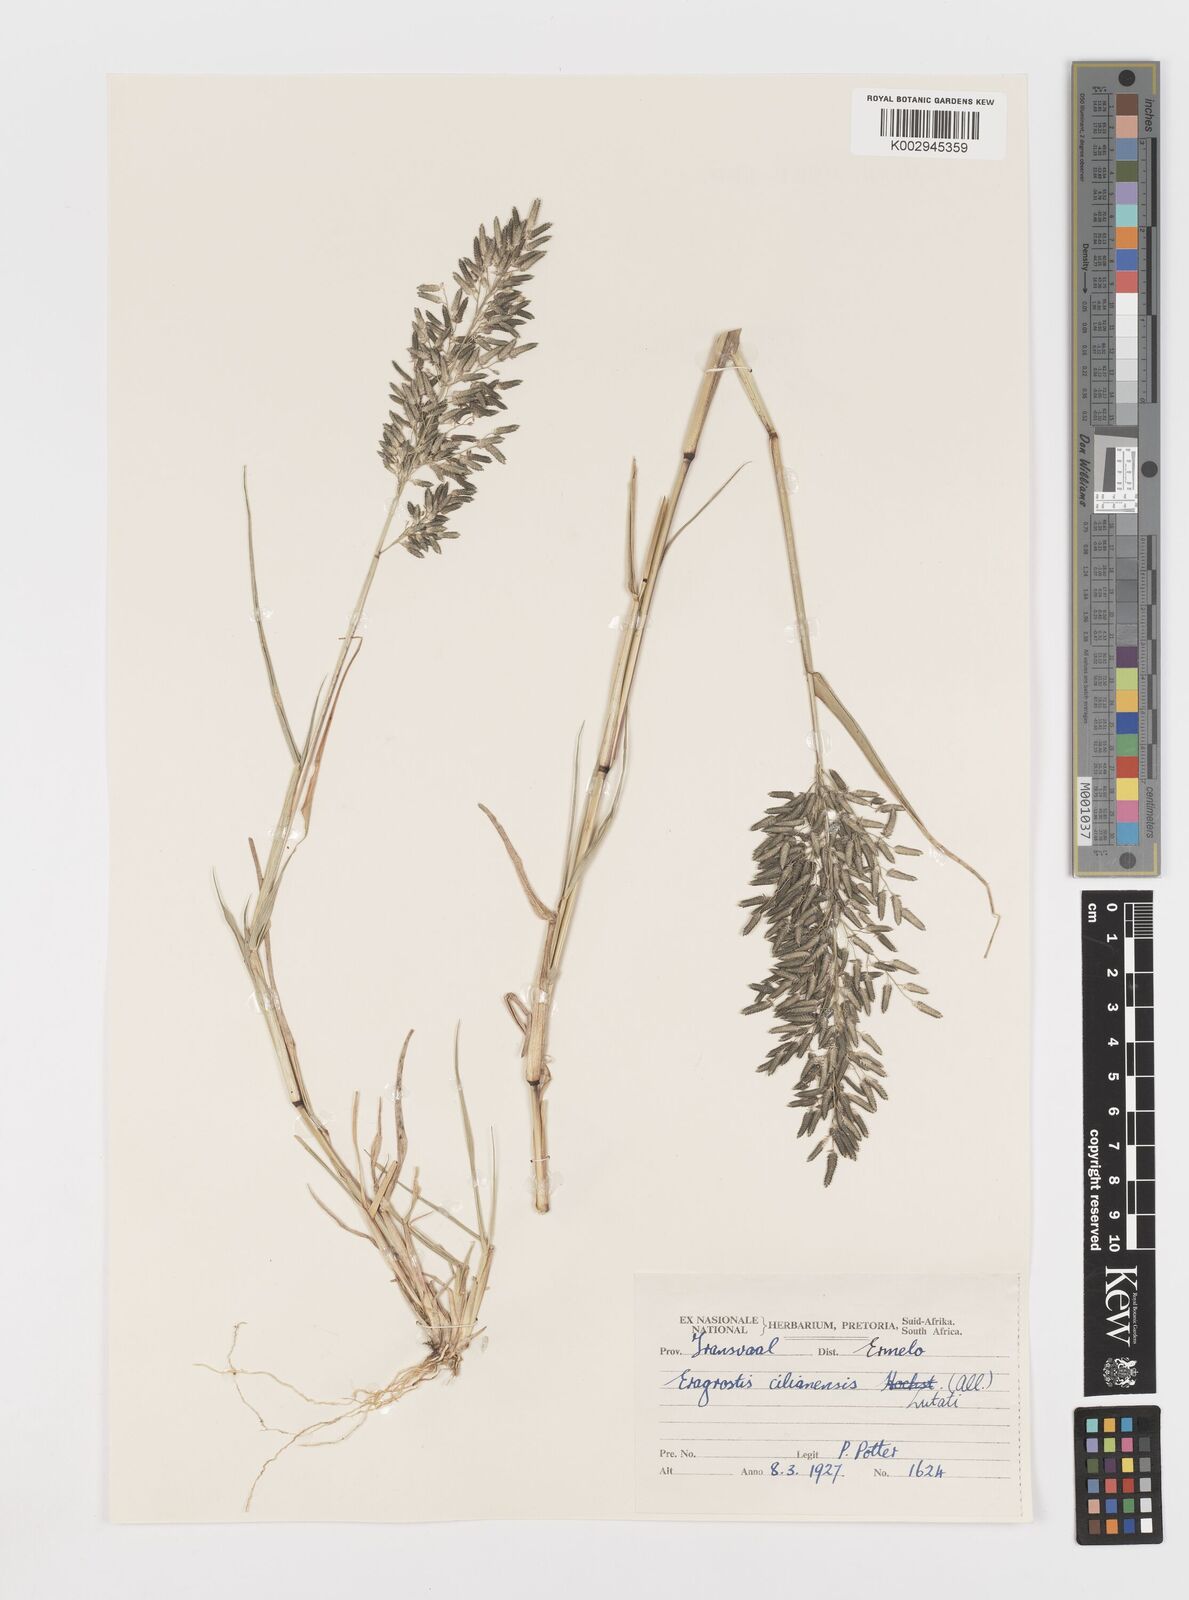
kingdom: Plantae
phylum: Tracheophyta
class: Liliopsida
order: Poales
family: Poaceae
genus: Eragrostis
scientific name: Eragrostis cilianensis
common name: Stinkgrass
